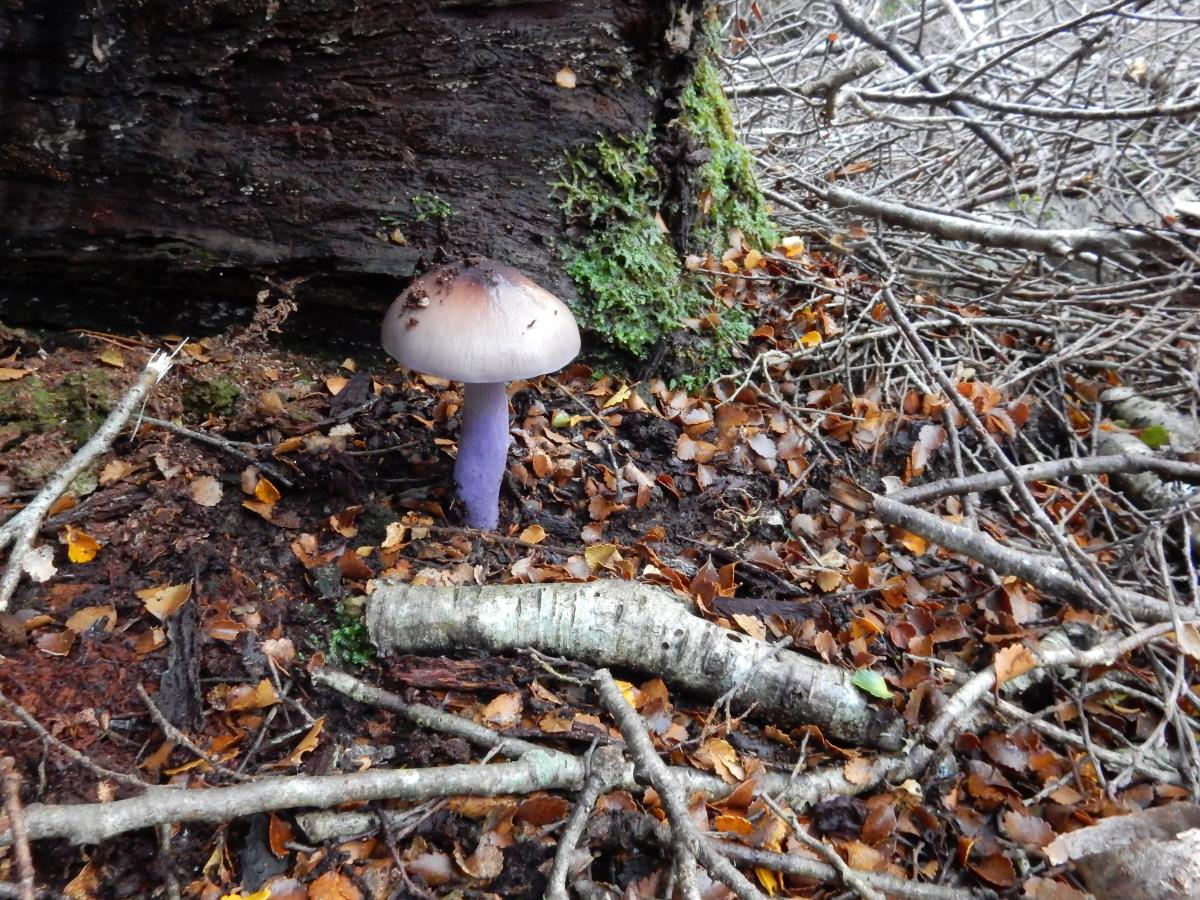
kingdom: Fungi
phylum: Basidiomycota
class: Agaricomycetes
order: Agaricales
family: Cortinariaceae
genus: Cortinarius
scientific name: Cortinarius bellus
